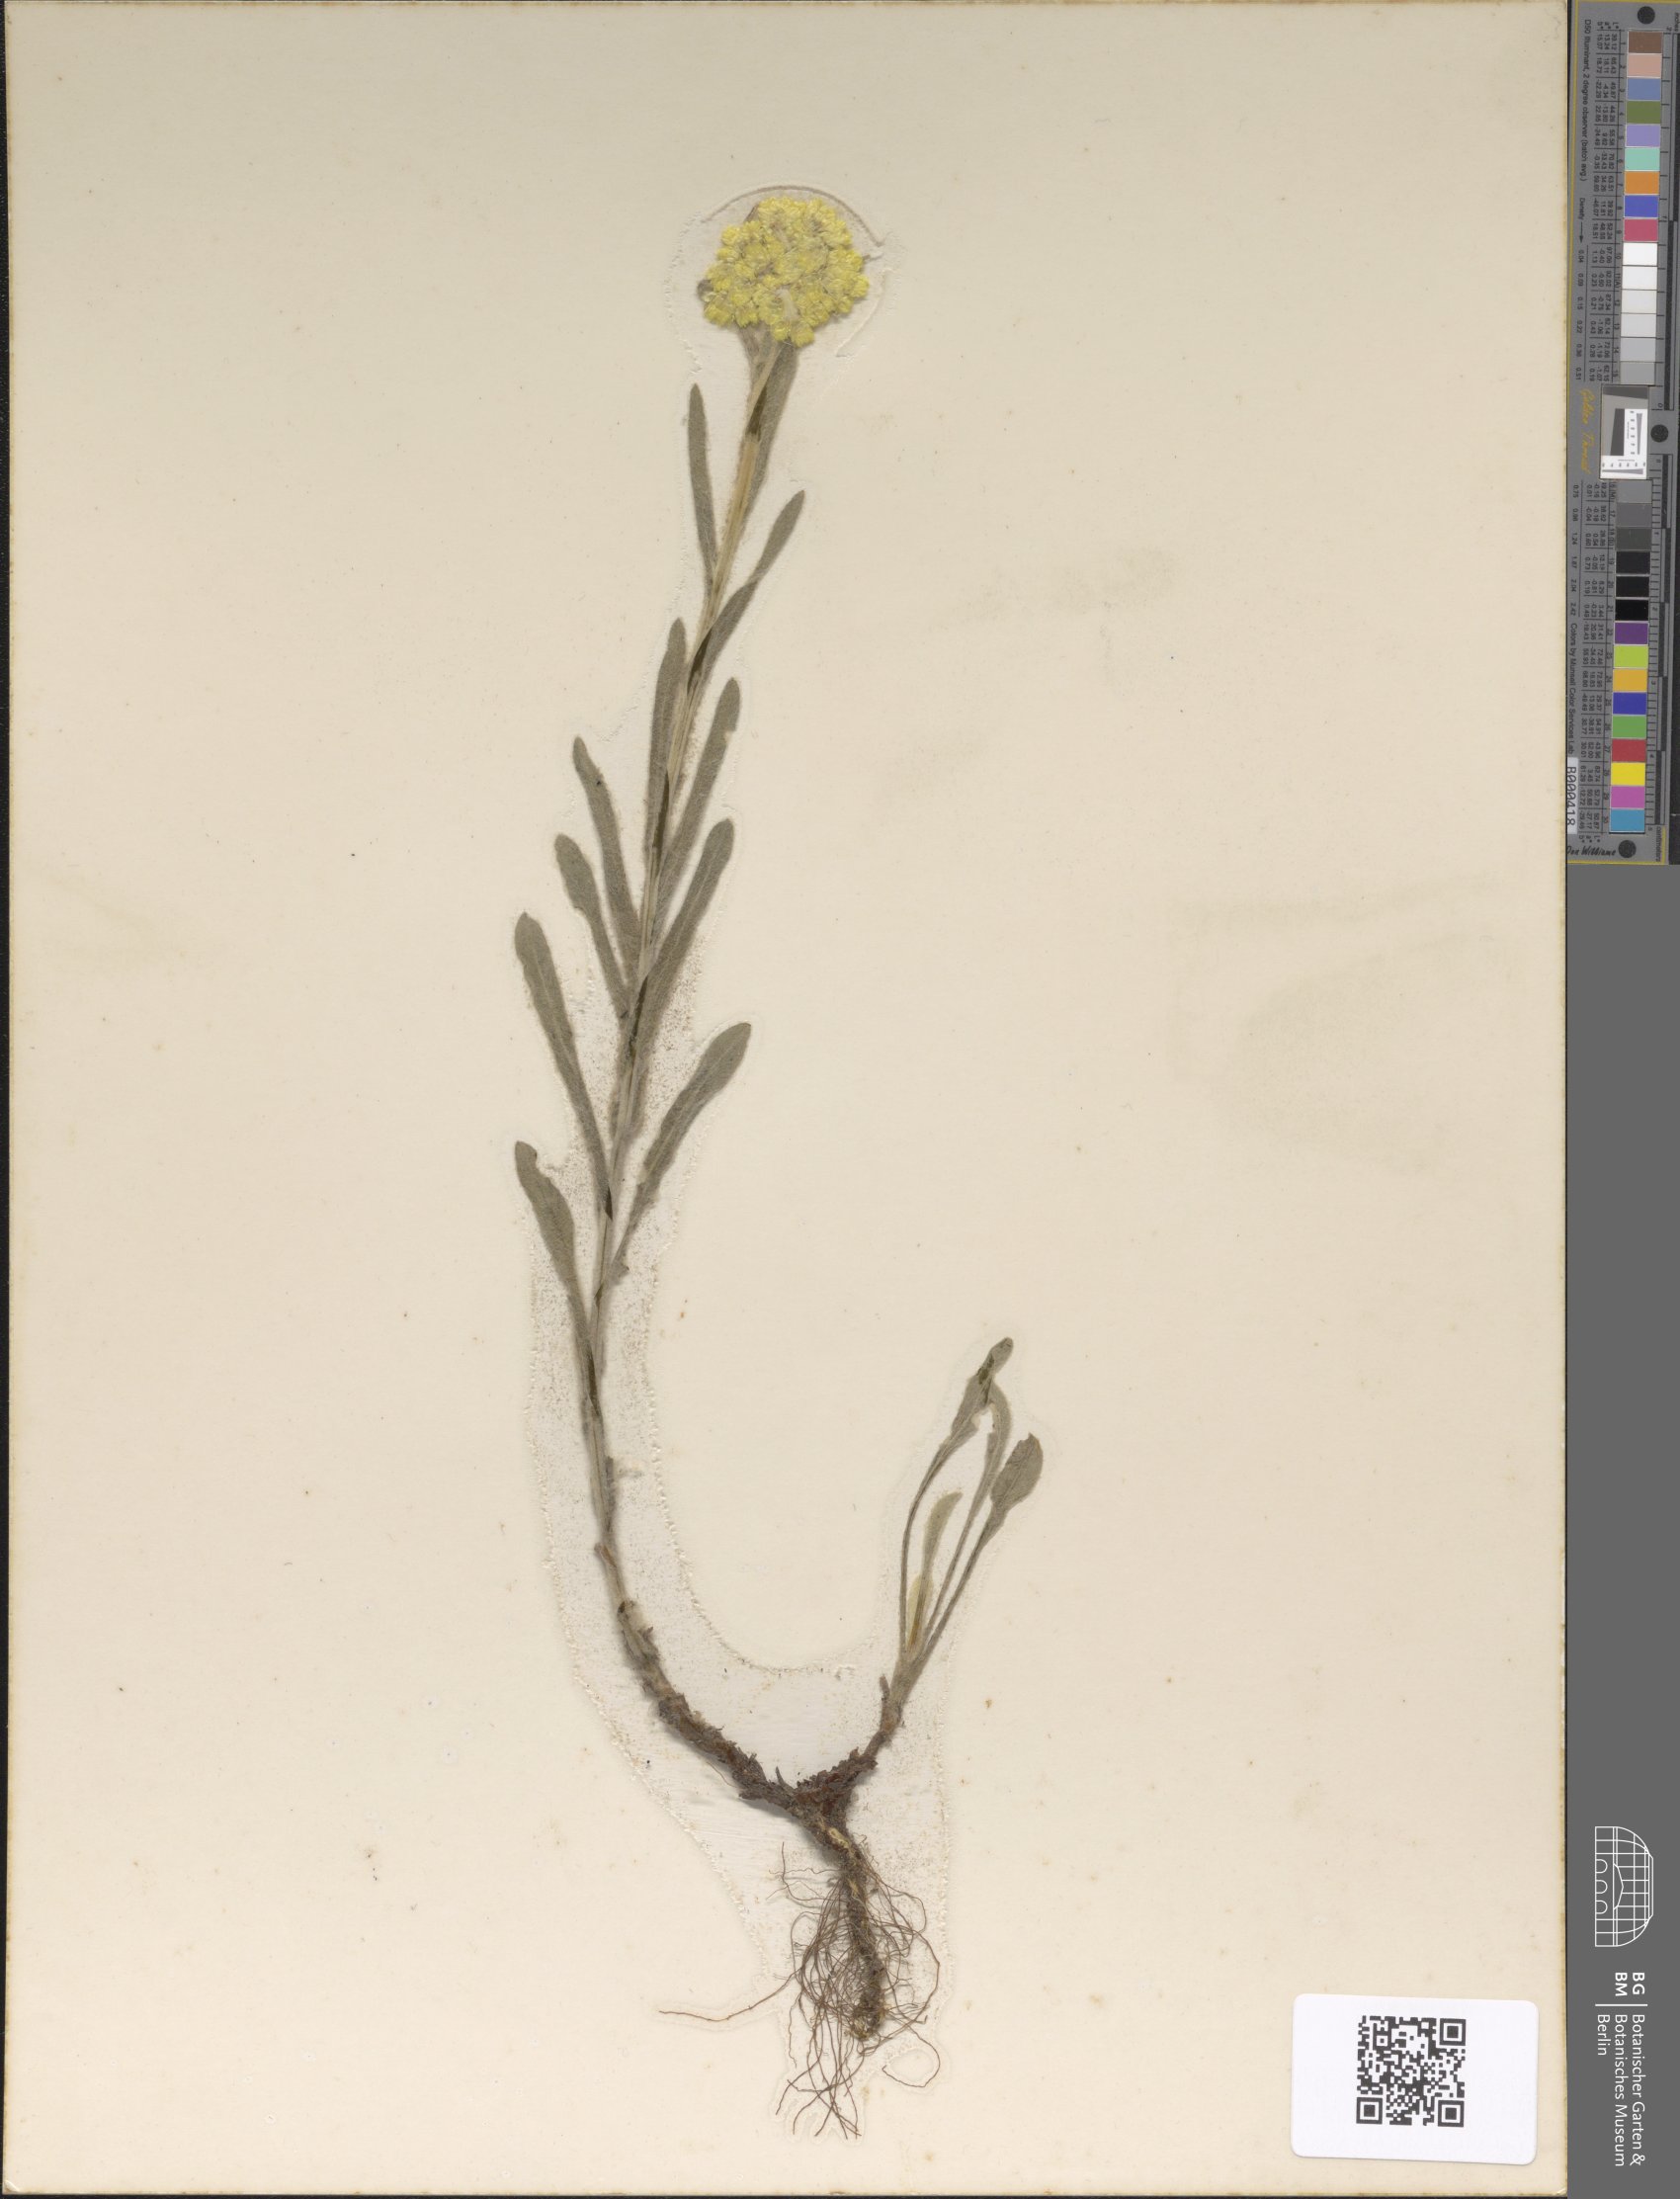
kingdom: Plantae
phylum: Tracheophyta
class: Magnoliopsida
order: Asterales
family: Asteraceae
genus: Helichrysum
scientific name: Helichrysum arenarium
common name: Strawflower
